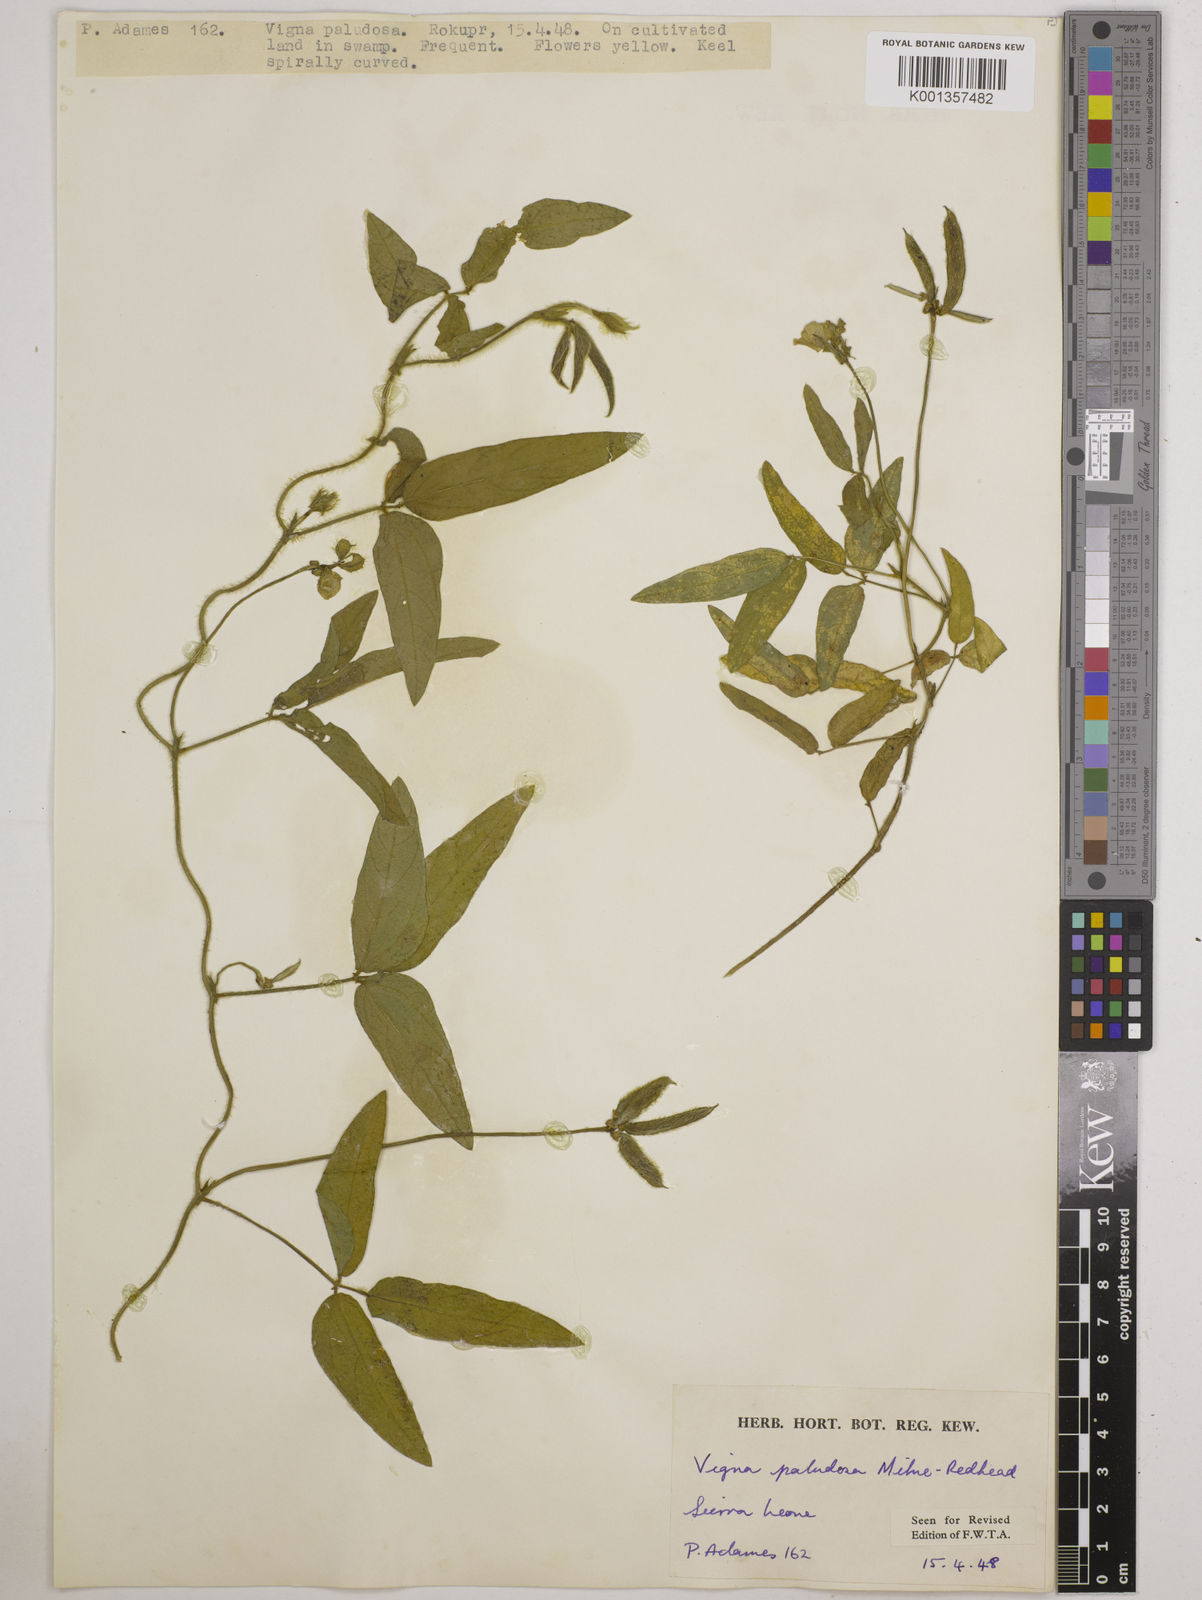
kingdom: Plantae
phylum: Tracheophyta
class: Magnoliopsida
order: Fabales
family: Fabaceae
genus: Vigna
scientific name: Vigna longifolia
